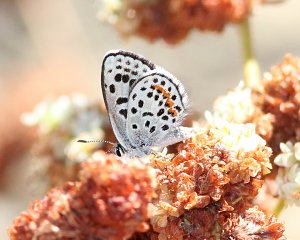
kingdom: Animalia
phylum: Arthropoda
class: Insecta
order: Lepidoptera
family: Lycaenidae
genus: Euphilotes
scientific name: Euphilotes enoptes
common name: Dotted Blue
